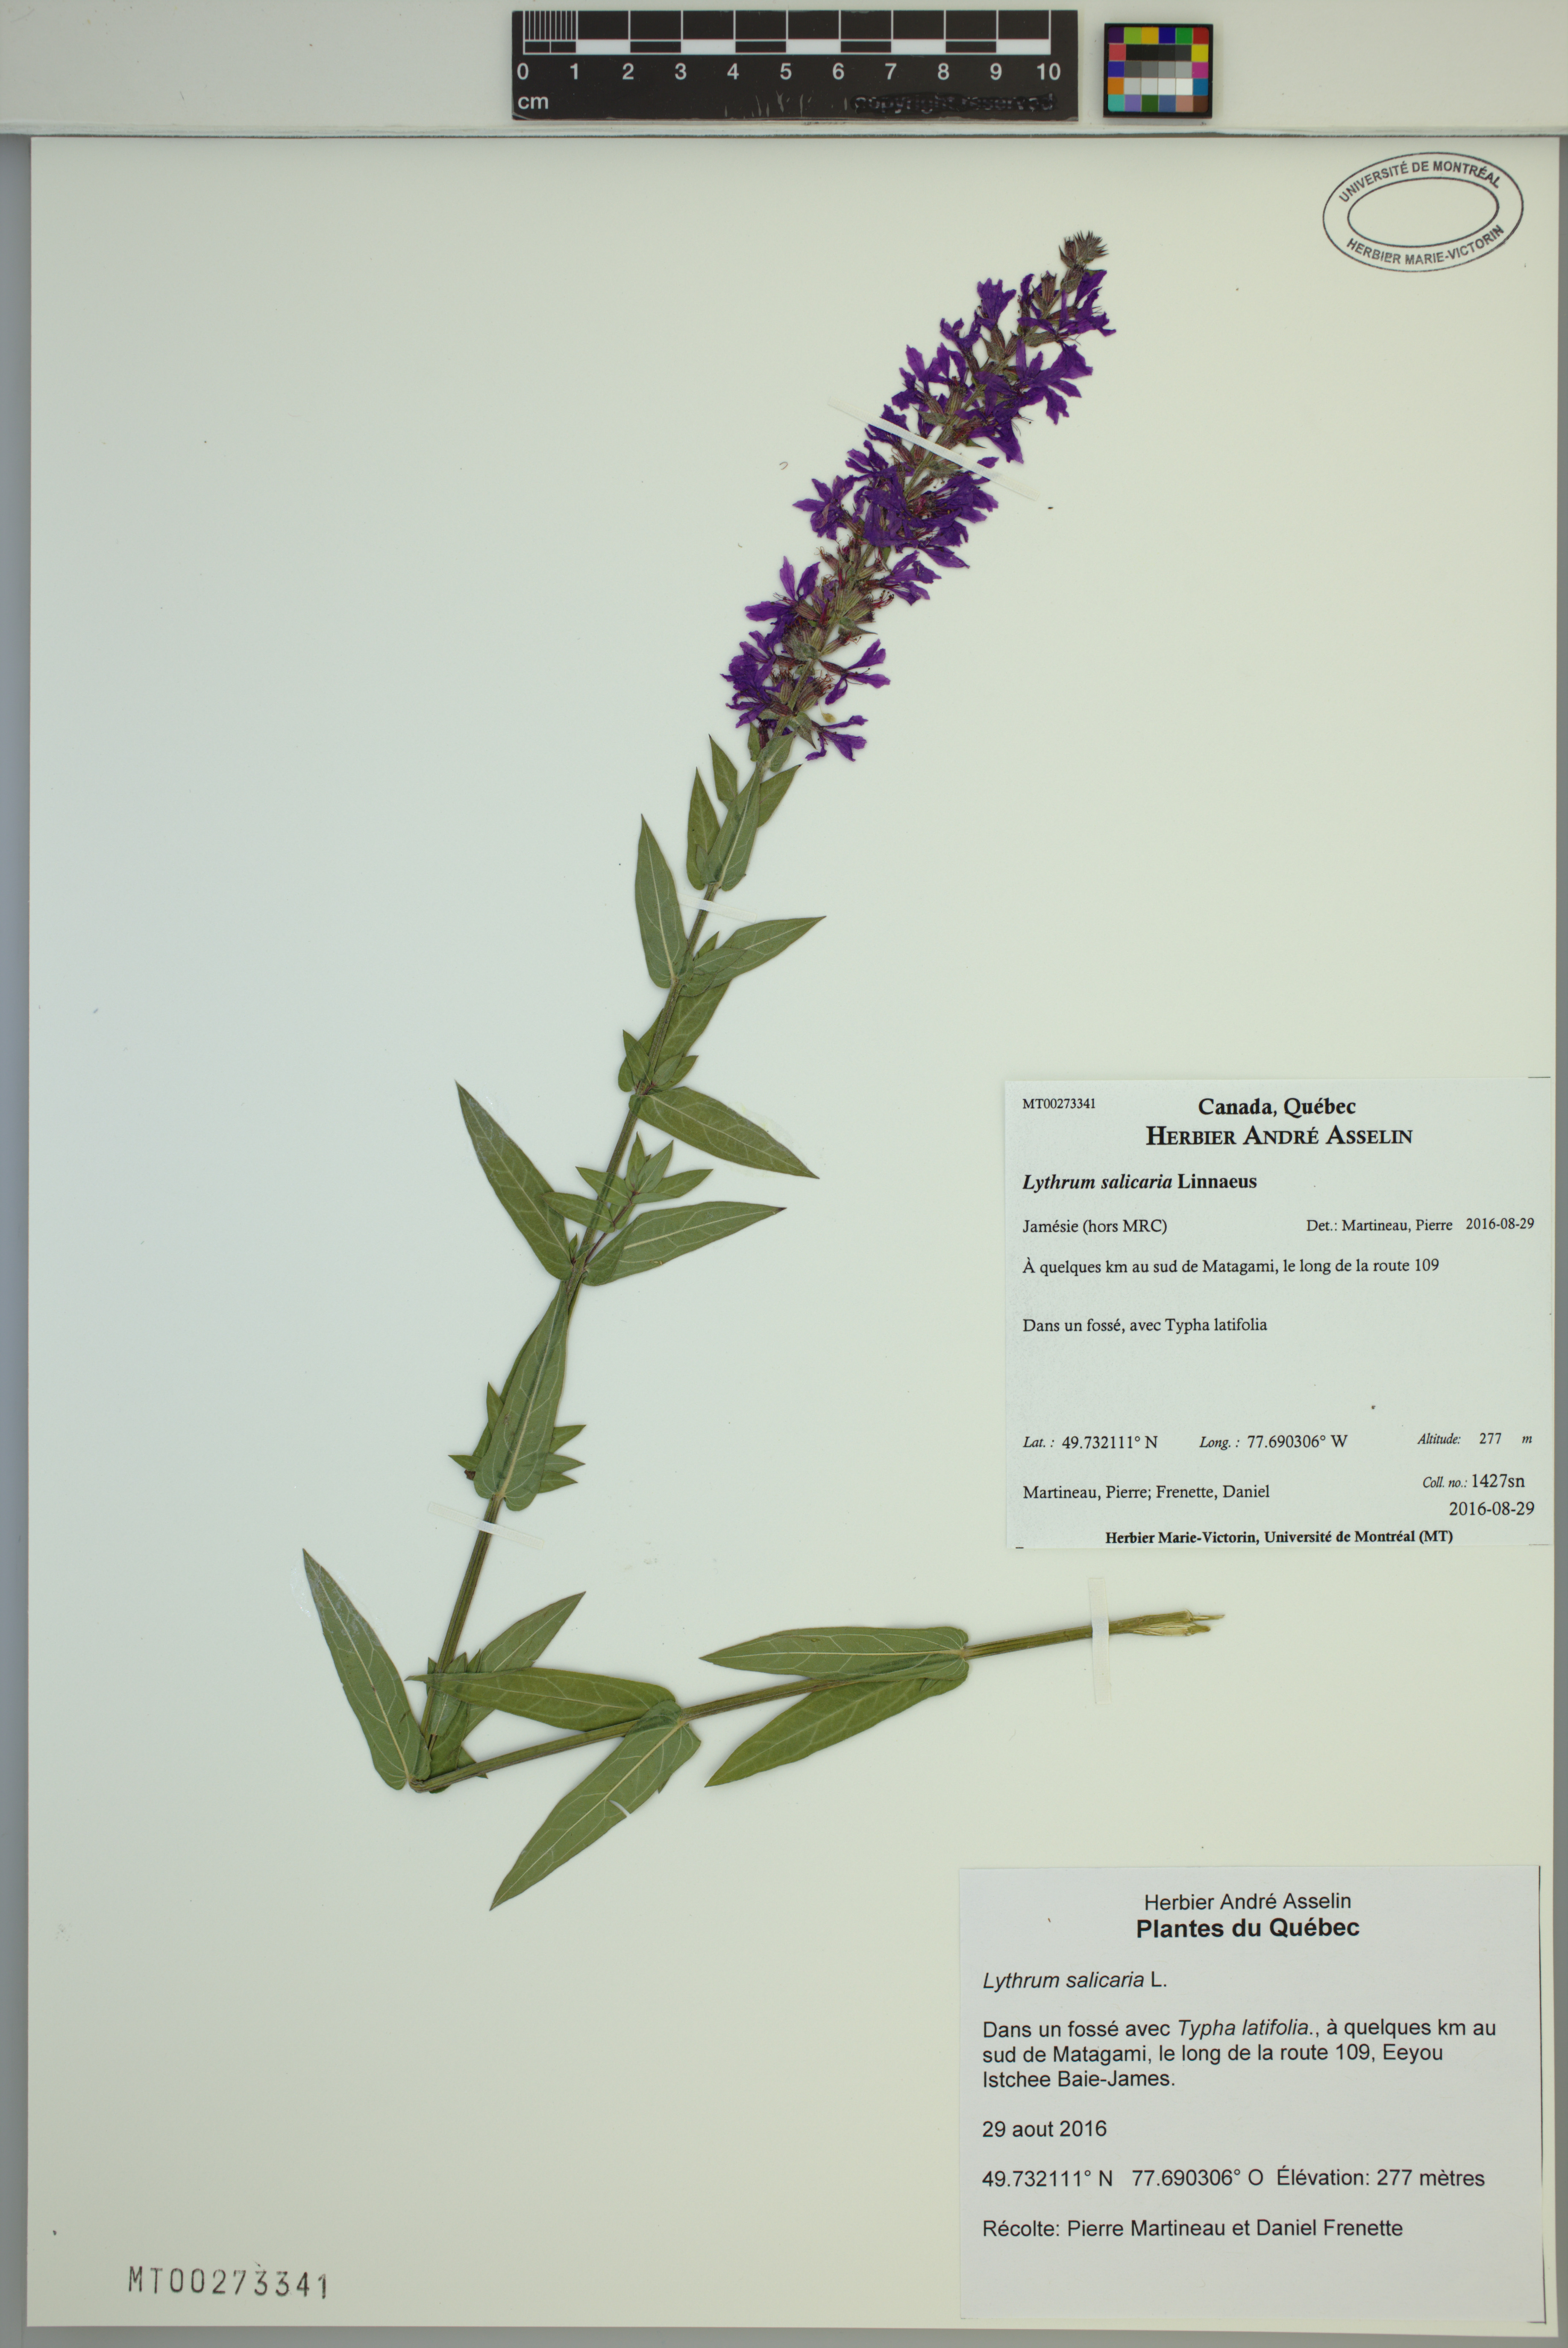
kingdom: Plantae
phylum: Tracheophyta
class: Magnoliopsida
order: Myrtales
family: Lythraceae
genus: Lythrum
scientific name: Lythrum salicaria
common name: Purple loosestrife
